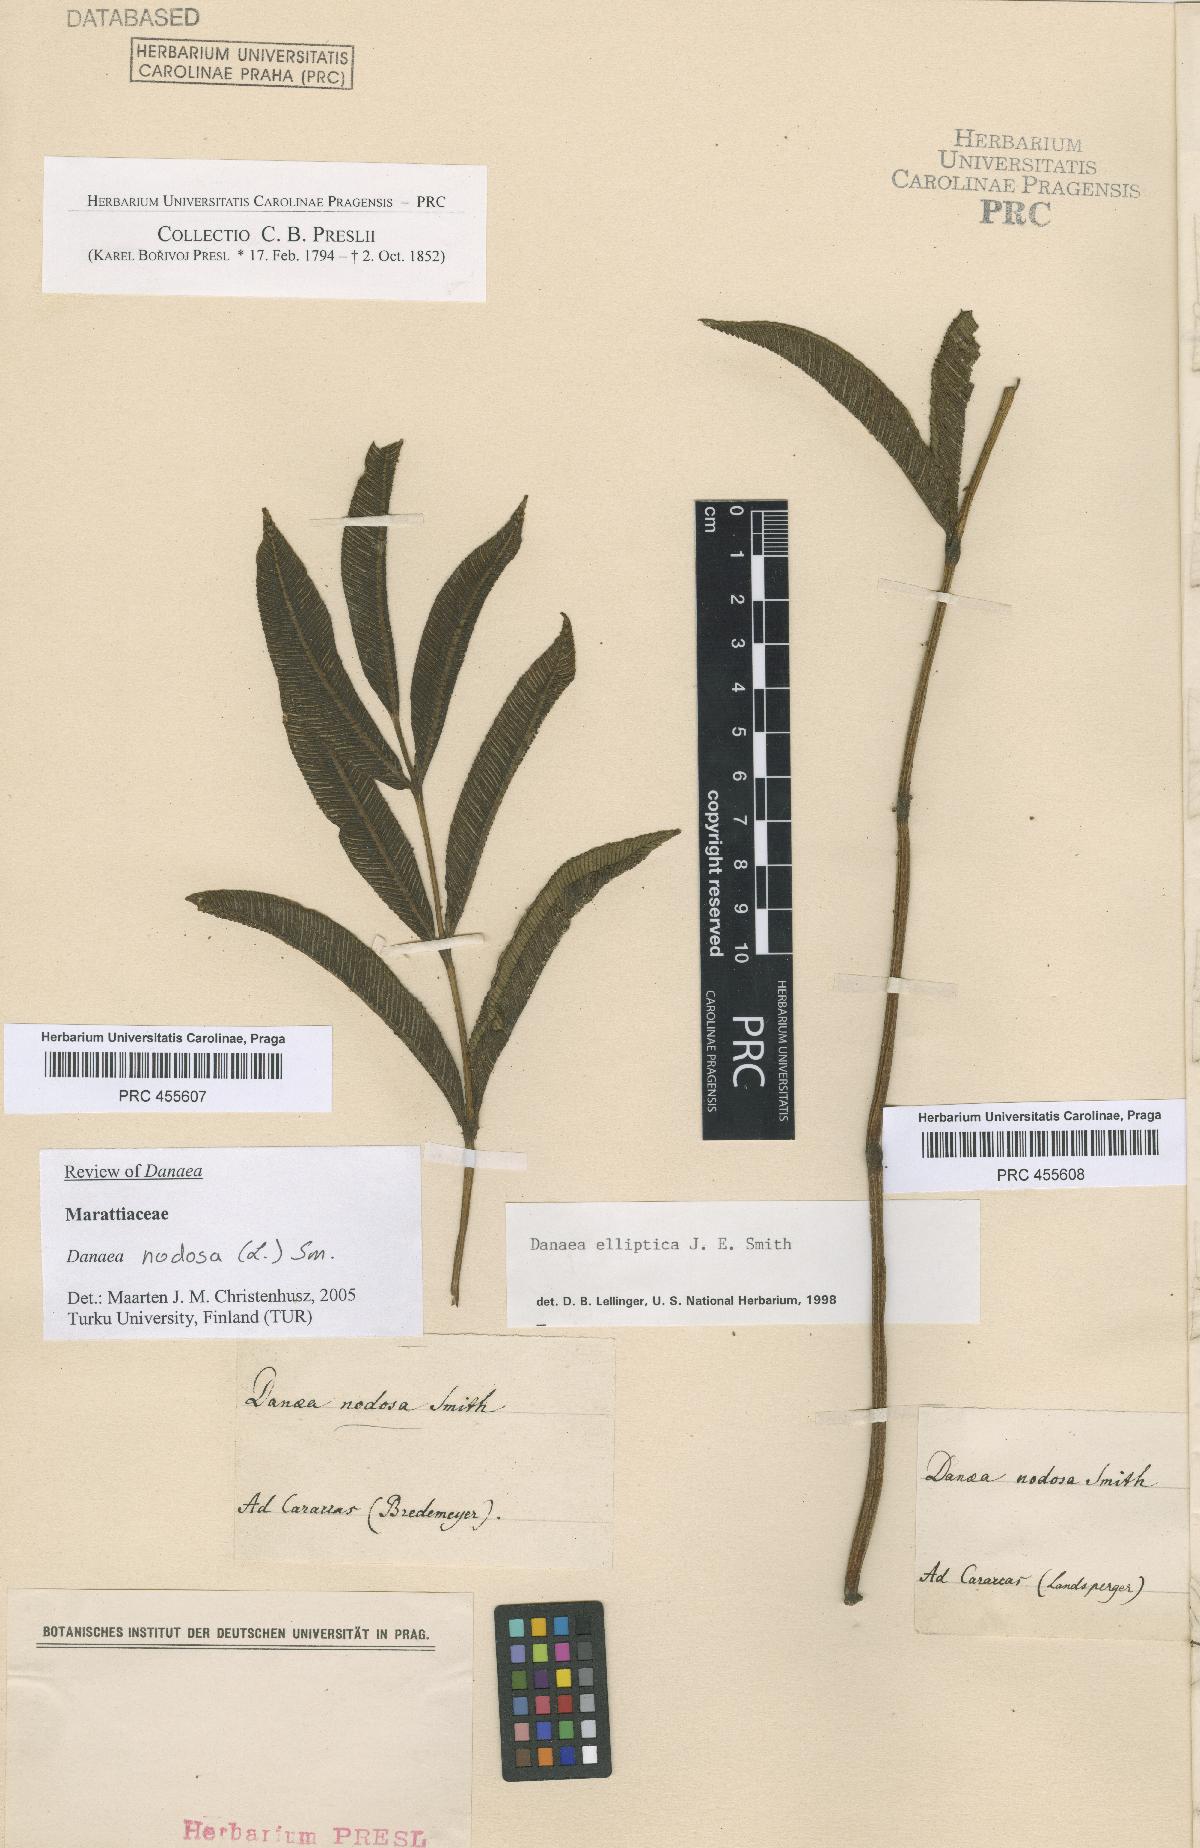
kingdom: Plantae
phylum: Tracheophyta
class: Polypodiopsida
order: Marattiales
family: Marattiaceae
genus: Danaea
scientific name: Danaea nodosa
